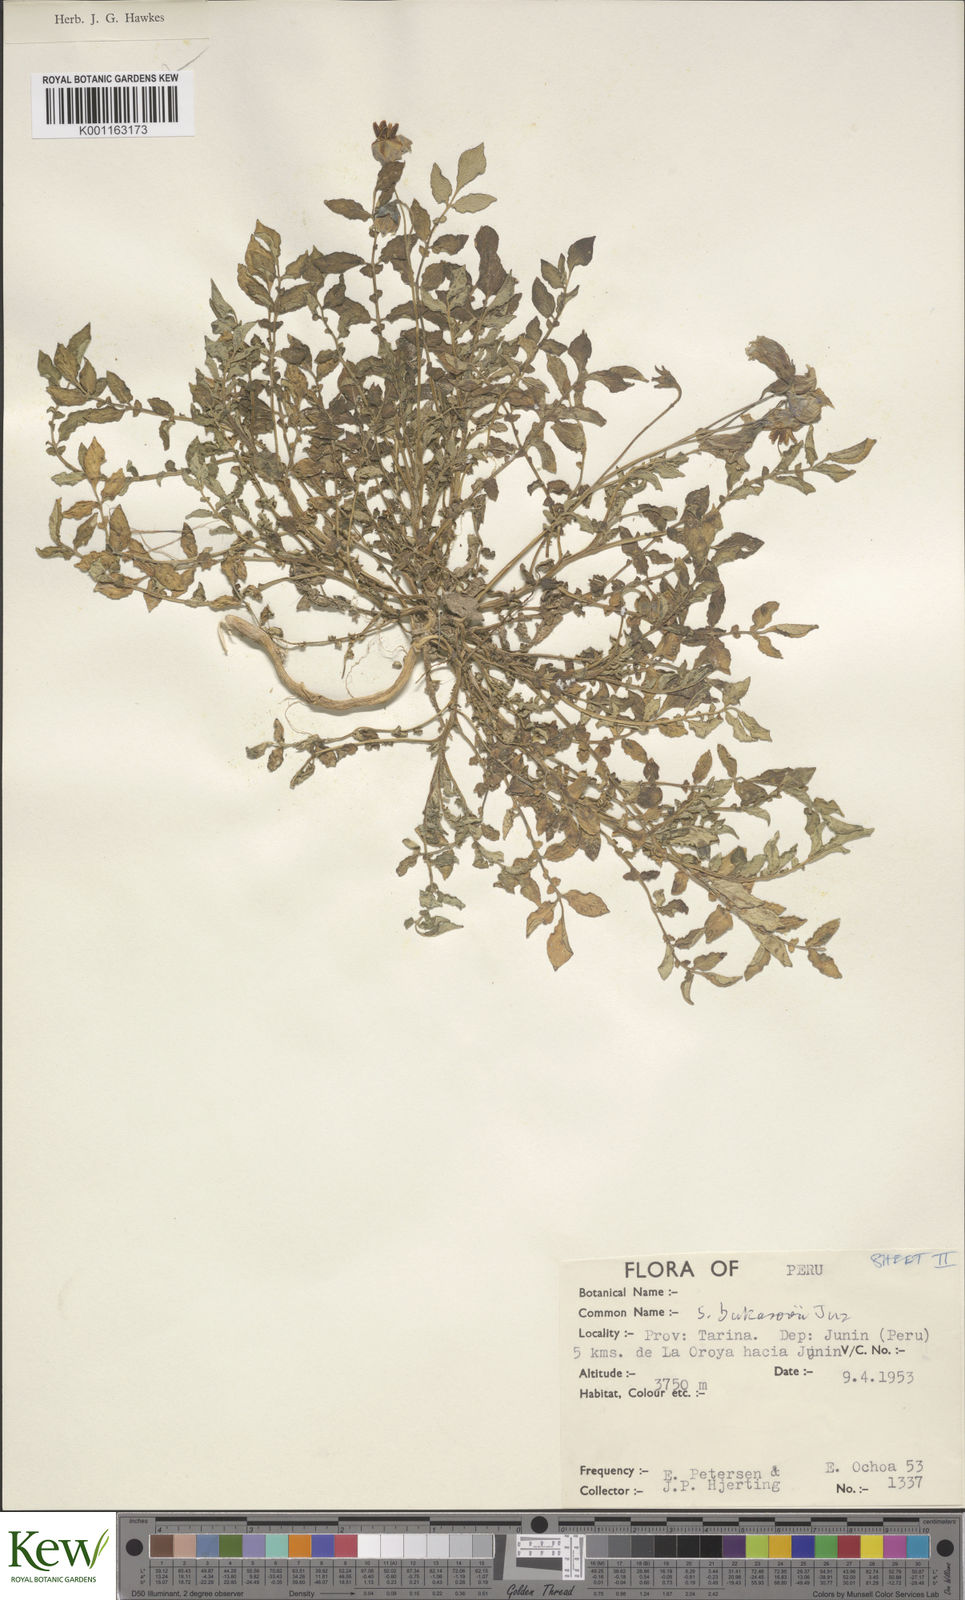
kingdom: Plantae
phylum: Tracheophyta
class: Magnoliopsida
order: Solanales
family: Solanaceae
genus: Solanum
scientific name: Solanum candolleanum
